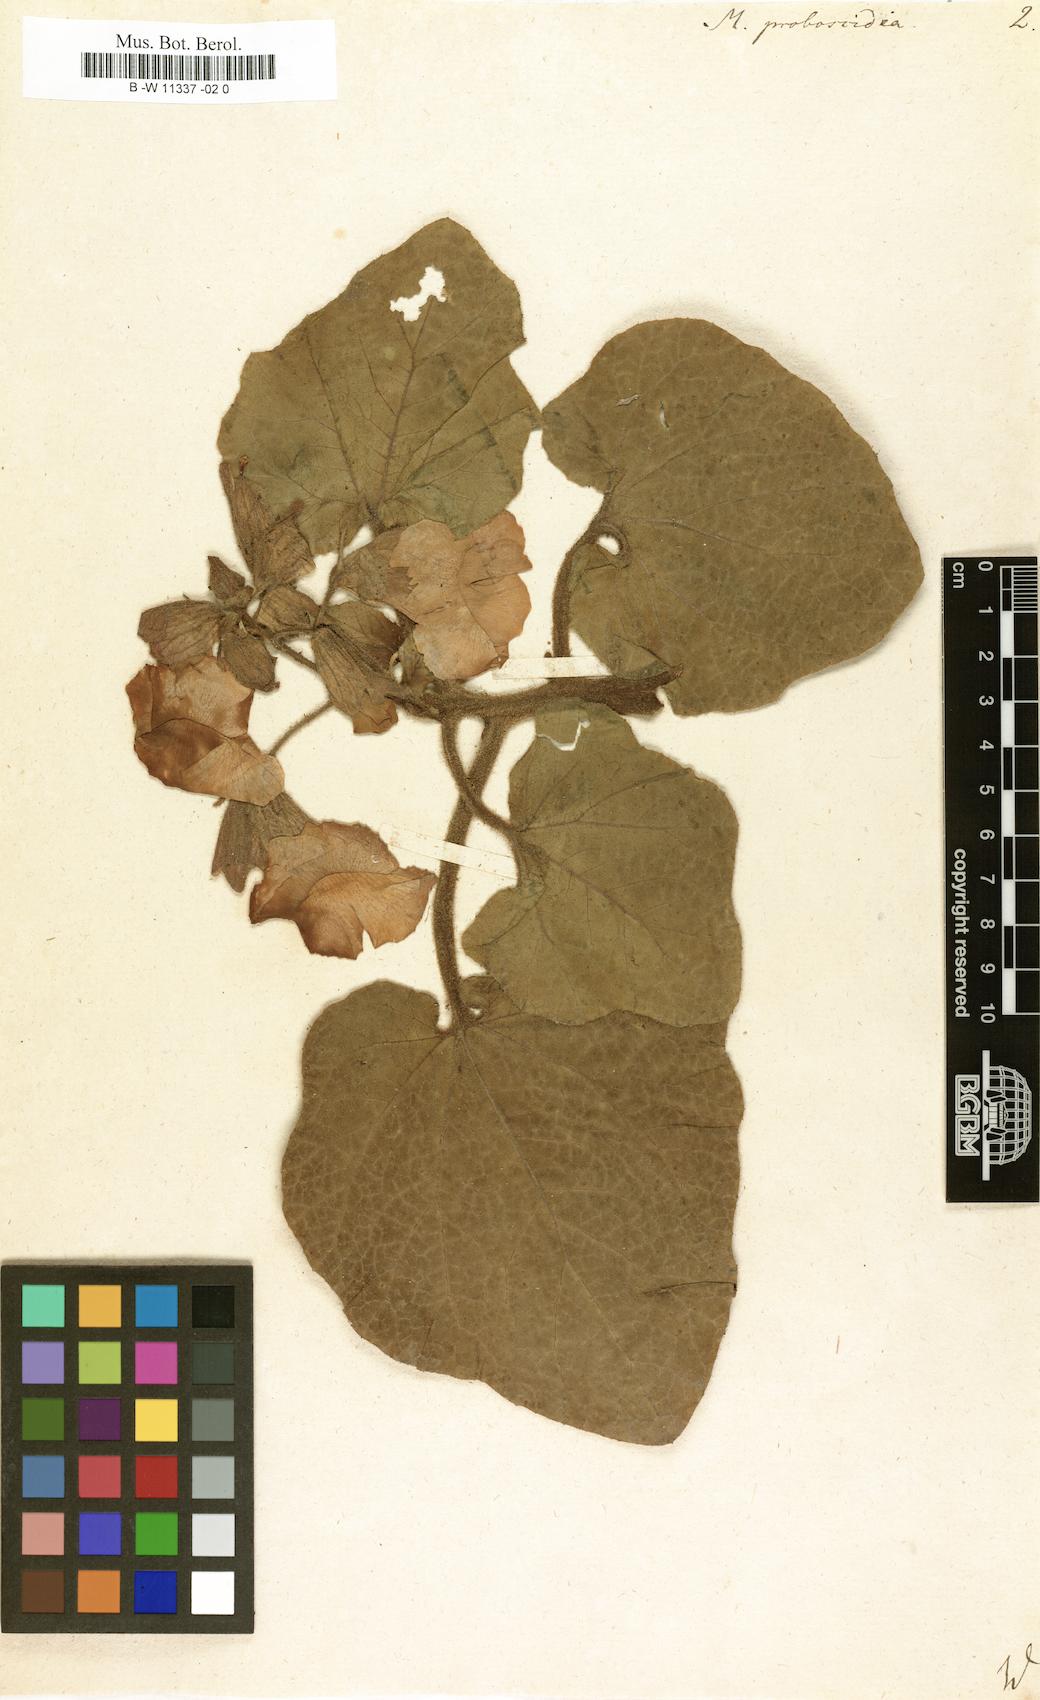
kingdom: Plantae
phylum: Tracheophyta
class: Magnoliopsida
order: Lamiales
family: Martyniaceae
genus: Proboscidea
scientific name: Proboscidea louisianica
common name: Elephant tusks
